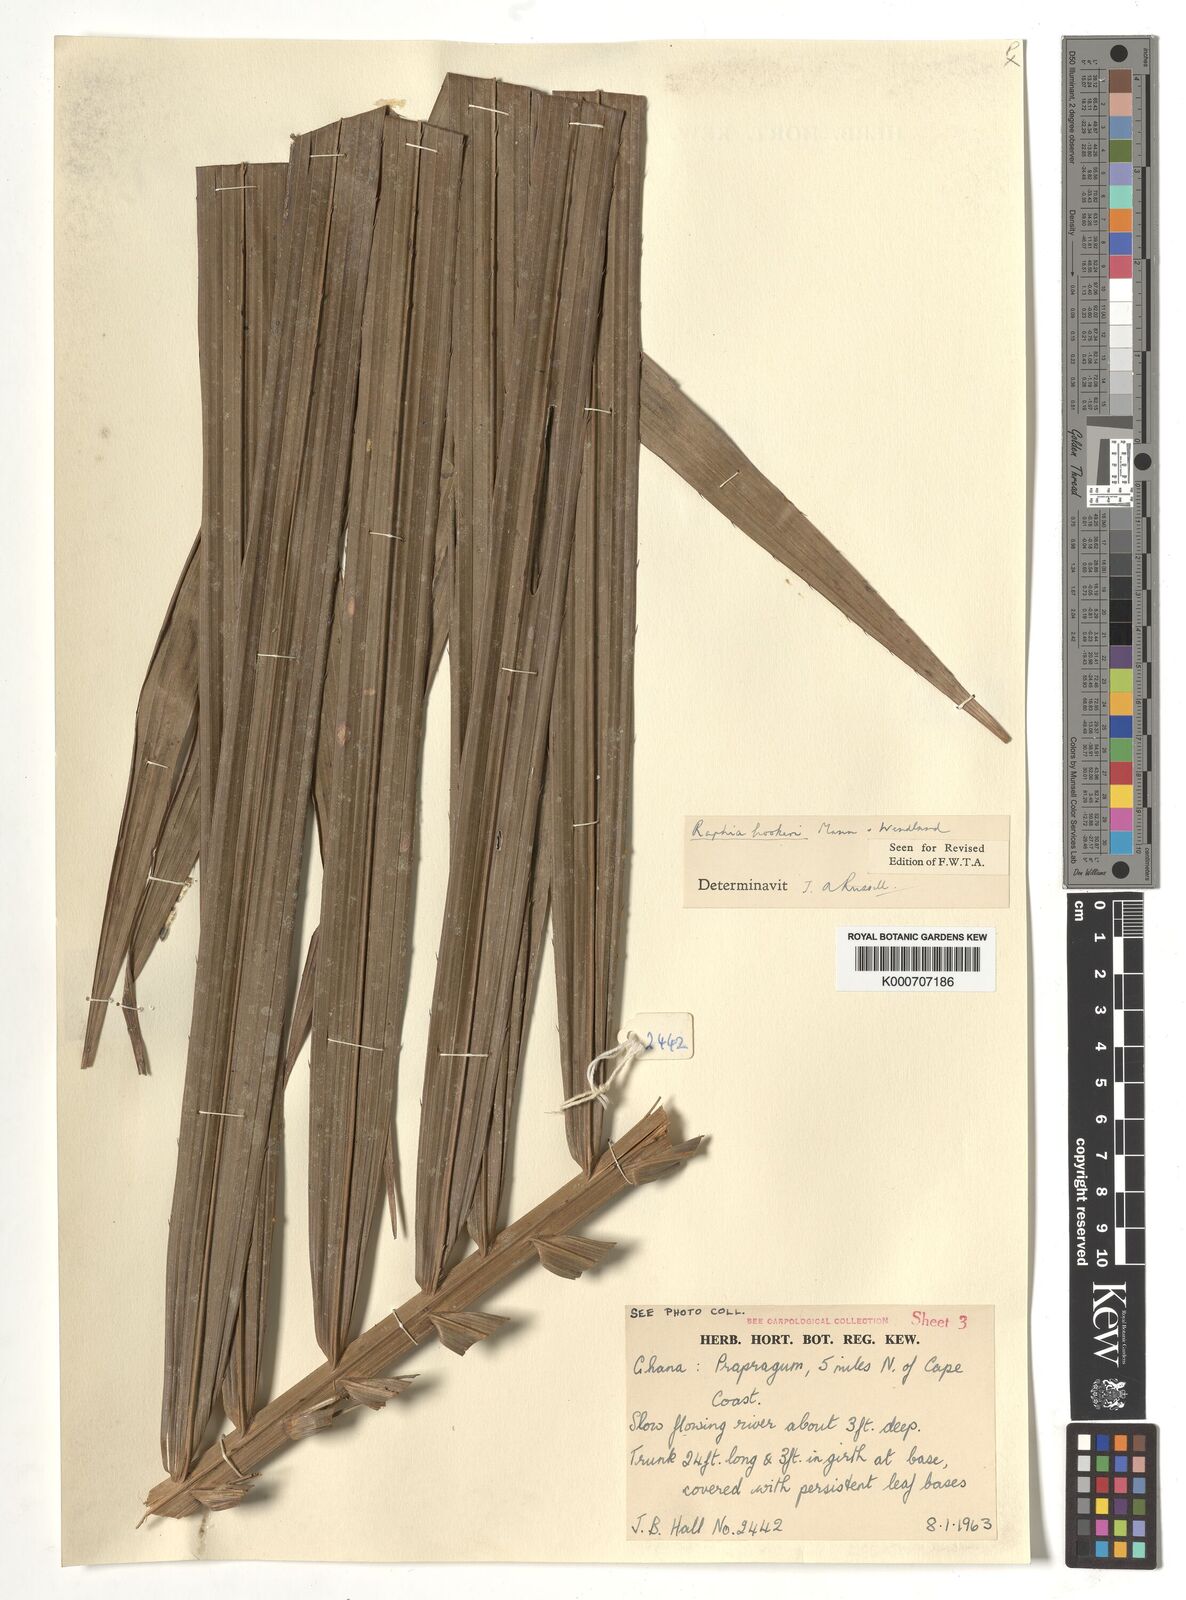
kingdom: Plantae
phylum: Tracheophyta
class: Liliopsida
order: Arecales
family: Arecaceae
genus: Raphia
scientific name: Raphia hookeri
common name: Wine palm
